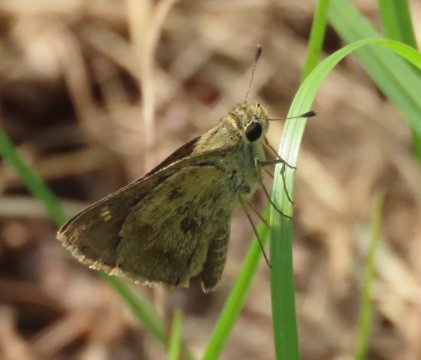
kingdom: Animalia
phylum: Arthropoda
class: Insecta
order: Lepidoptera
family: Hesperiidae
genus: Polites
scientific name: Polites vibex
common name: Whirlabout
